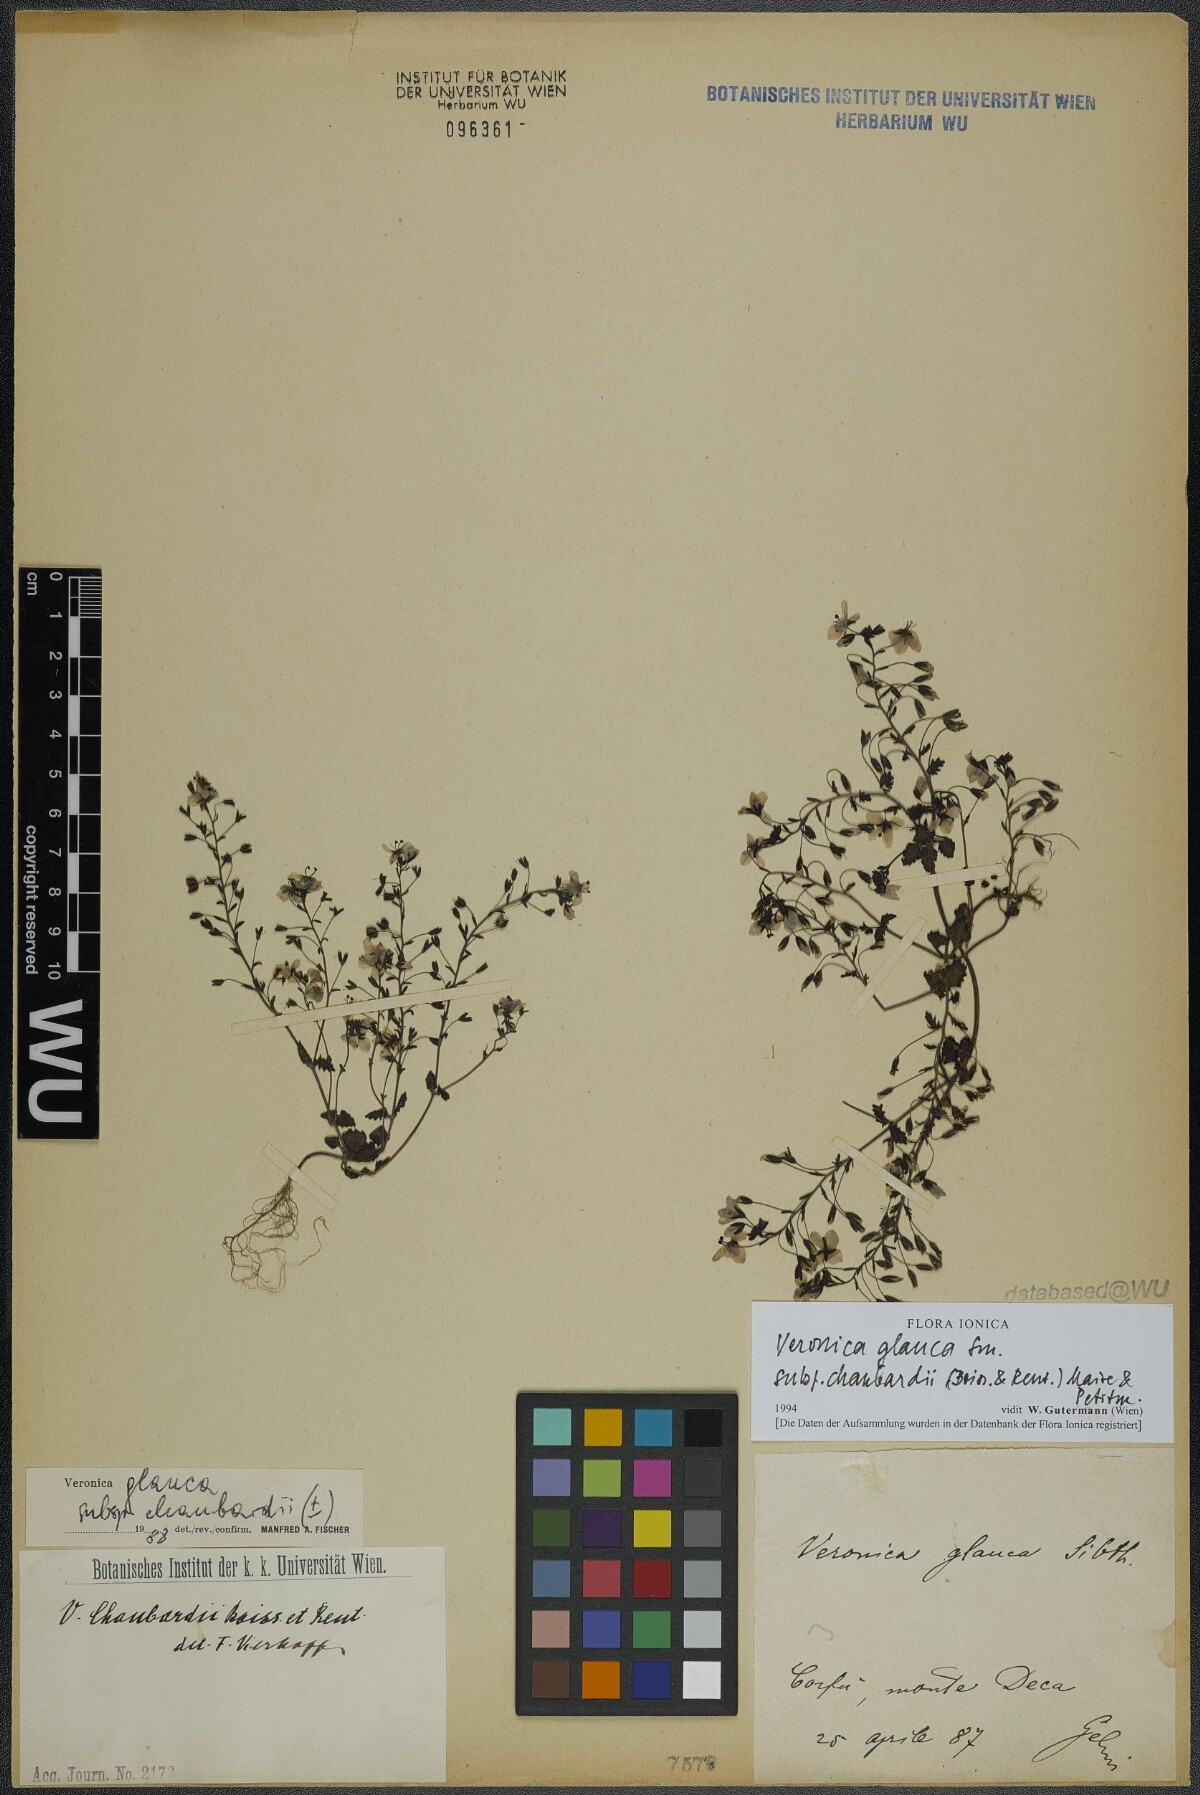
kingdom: Plantae
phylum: Tracheophyta
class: Magnoliopsida
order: Lamiales
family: Plantaginaceae
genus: Veronica
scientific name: Veronica glauca
